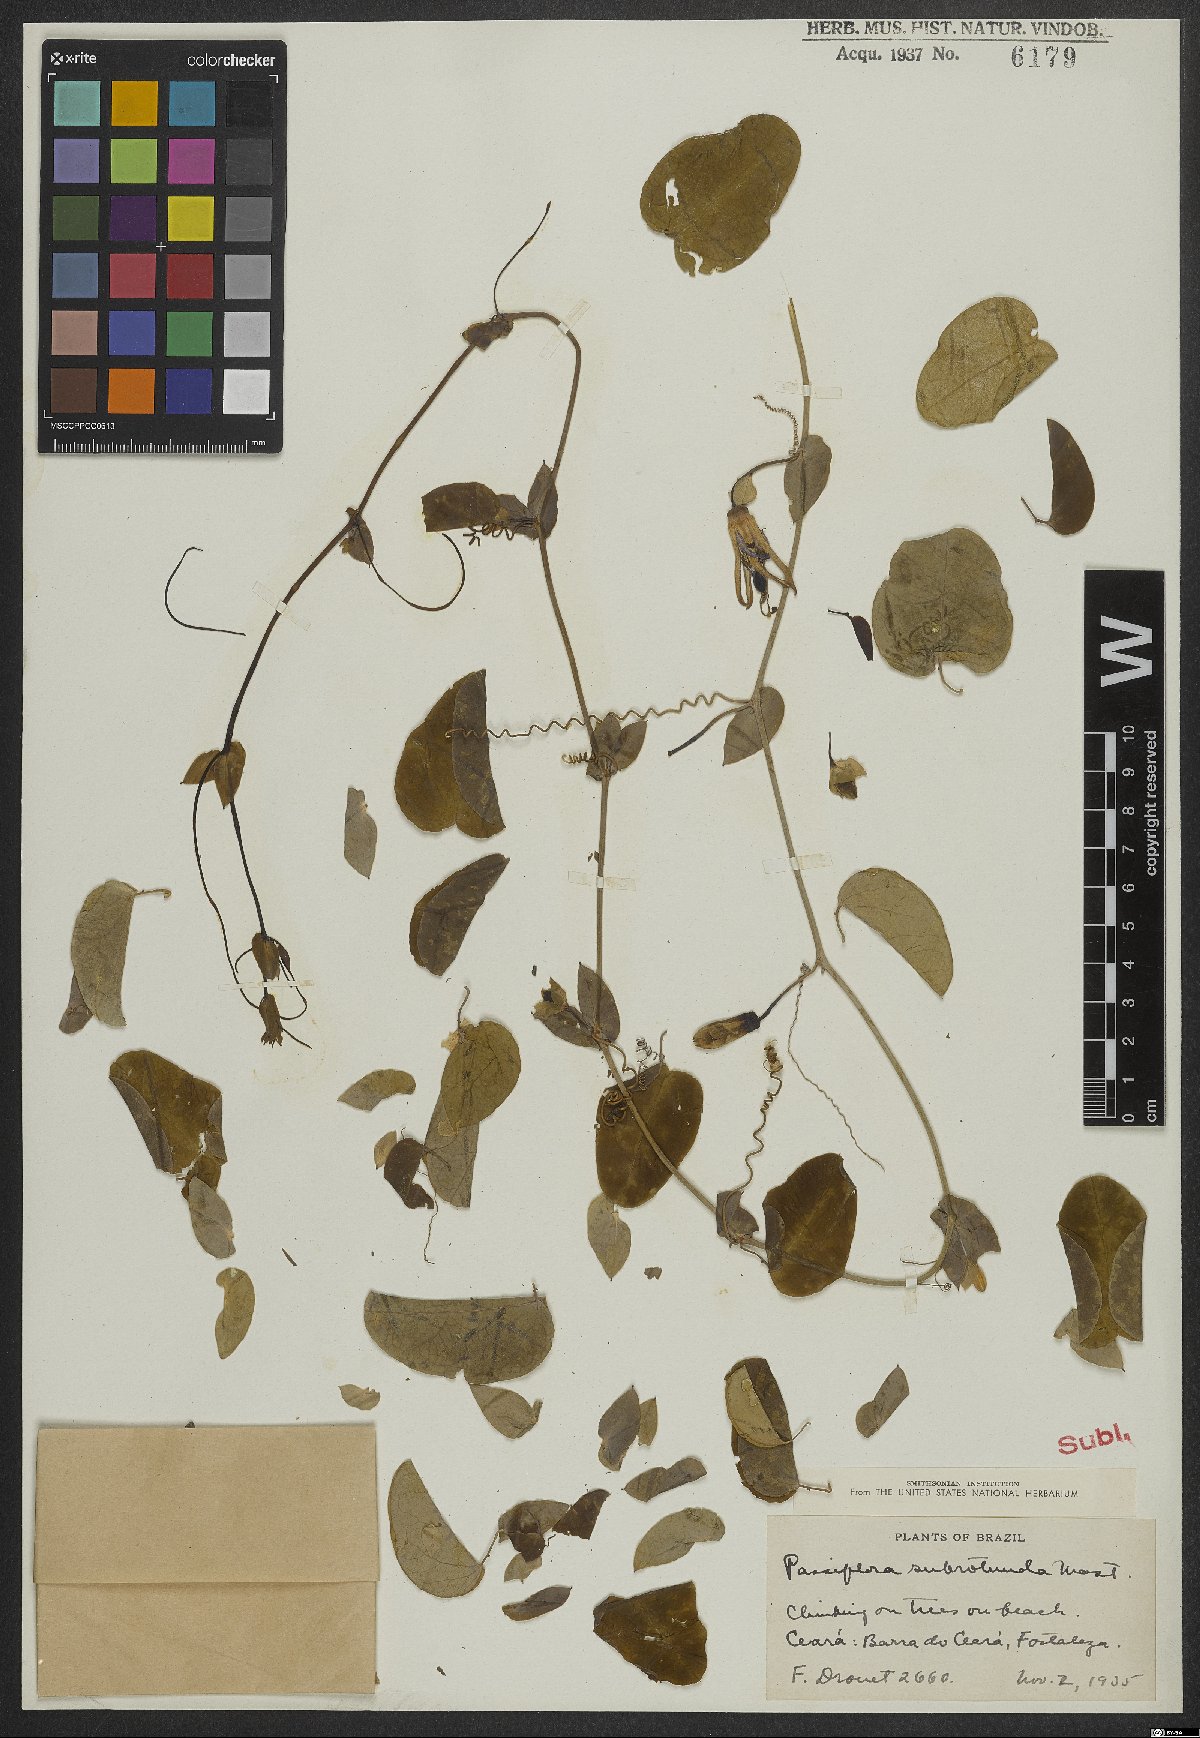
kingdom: Plantae
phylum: Tracheophyta
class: Magnoliopsida
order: Malpighiales
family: Passifloraceae
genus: Passiflora
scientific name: Passiflora subrotunda
